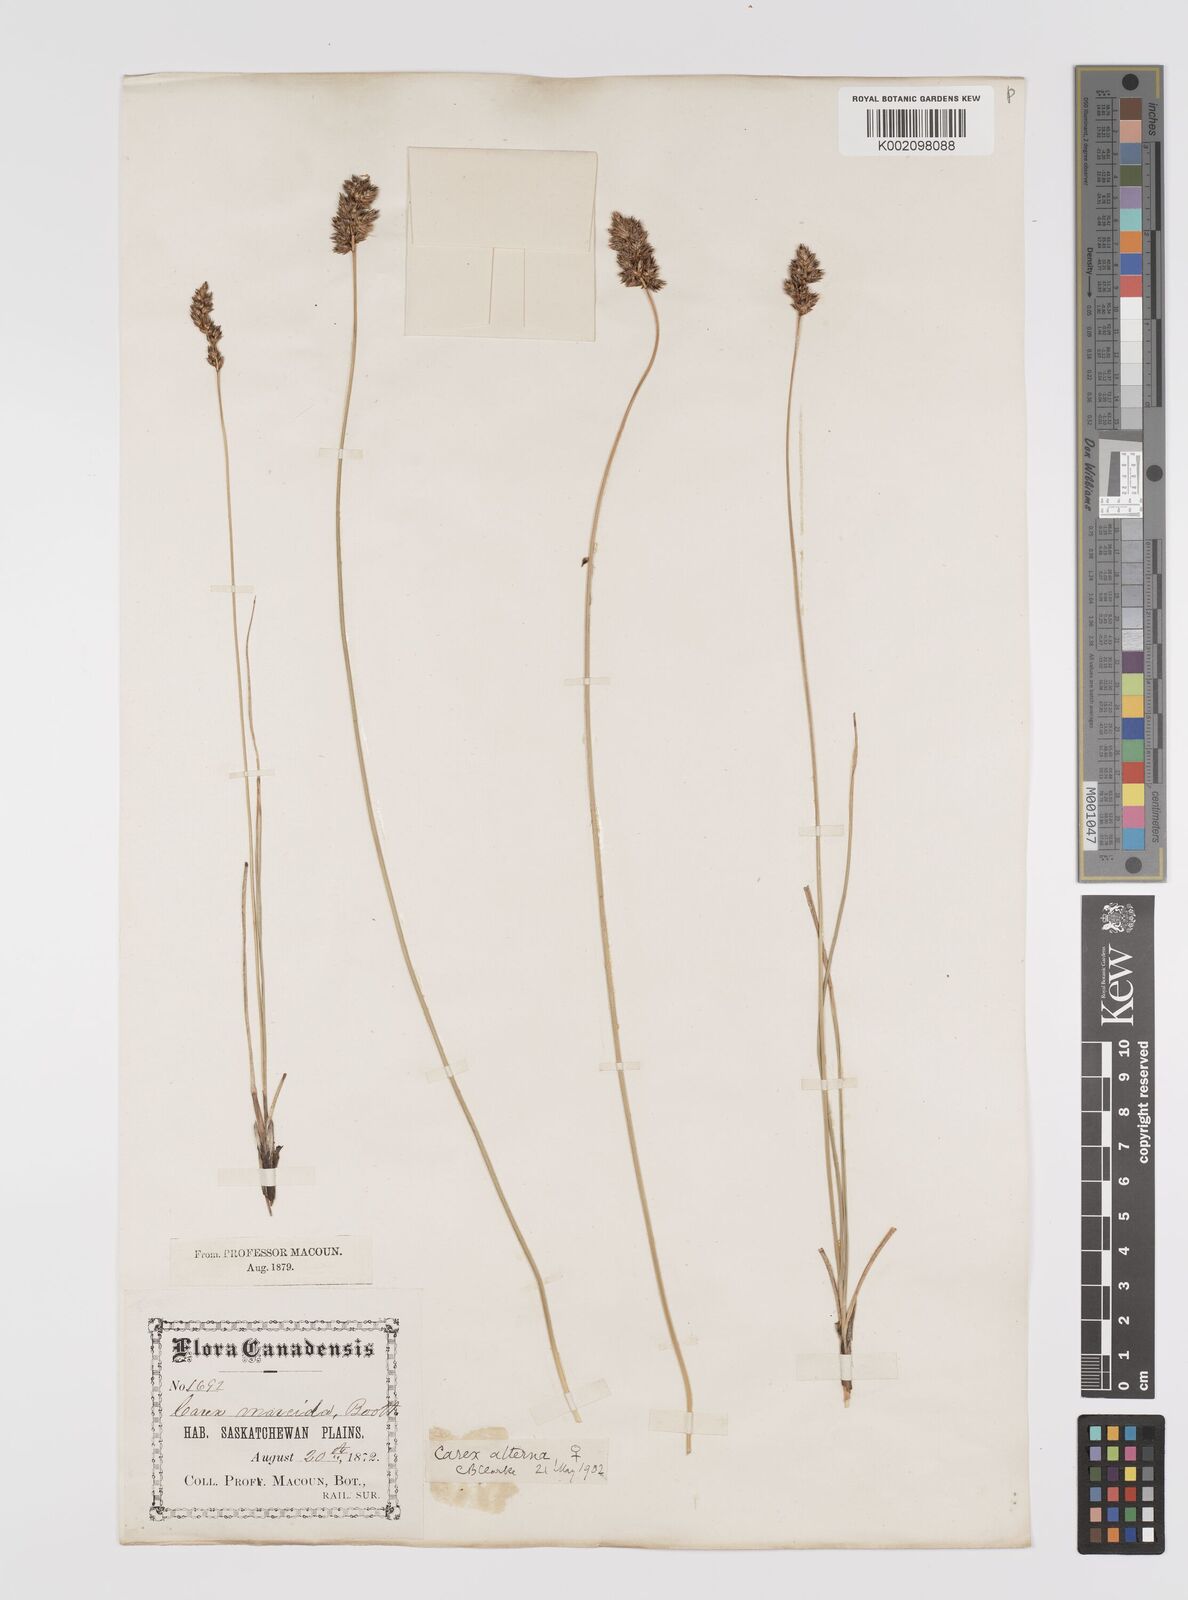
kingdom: Plantae
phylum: Tracheophyta
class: Liliopsida
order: Poales
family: Cyperaceae
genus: Carex
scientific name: Carex praegracilis
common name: Black creeper sedge
